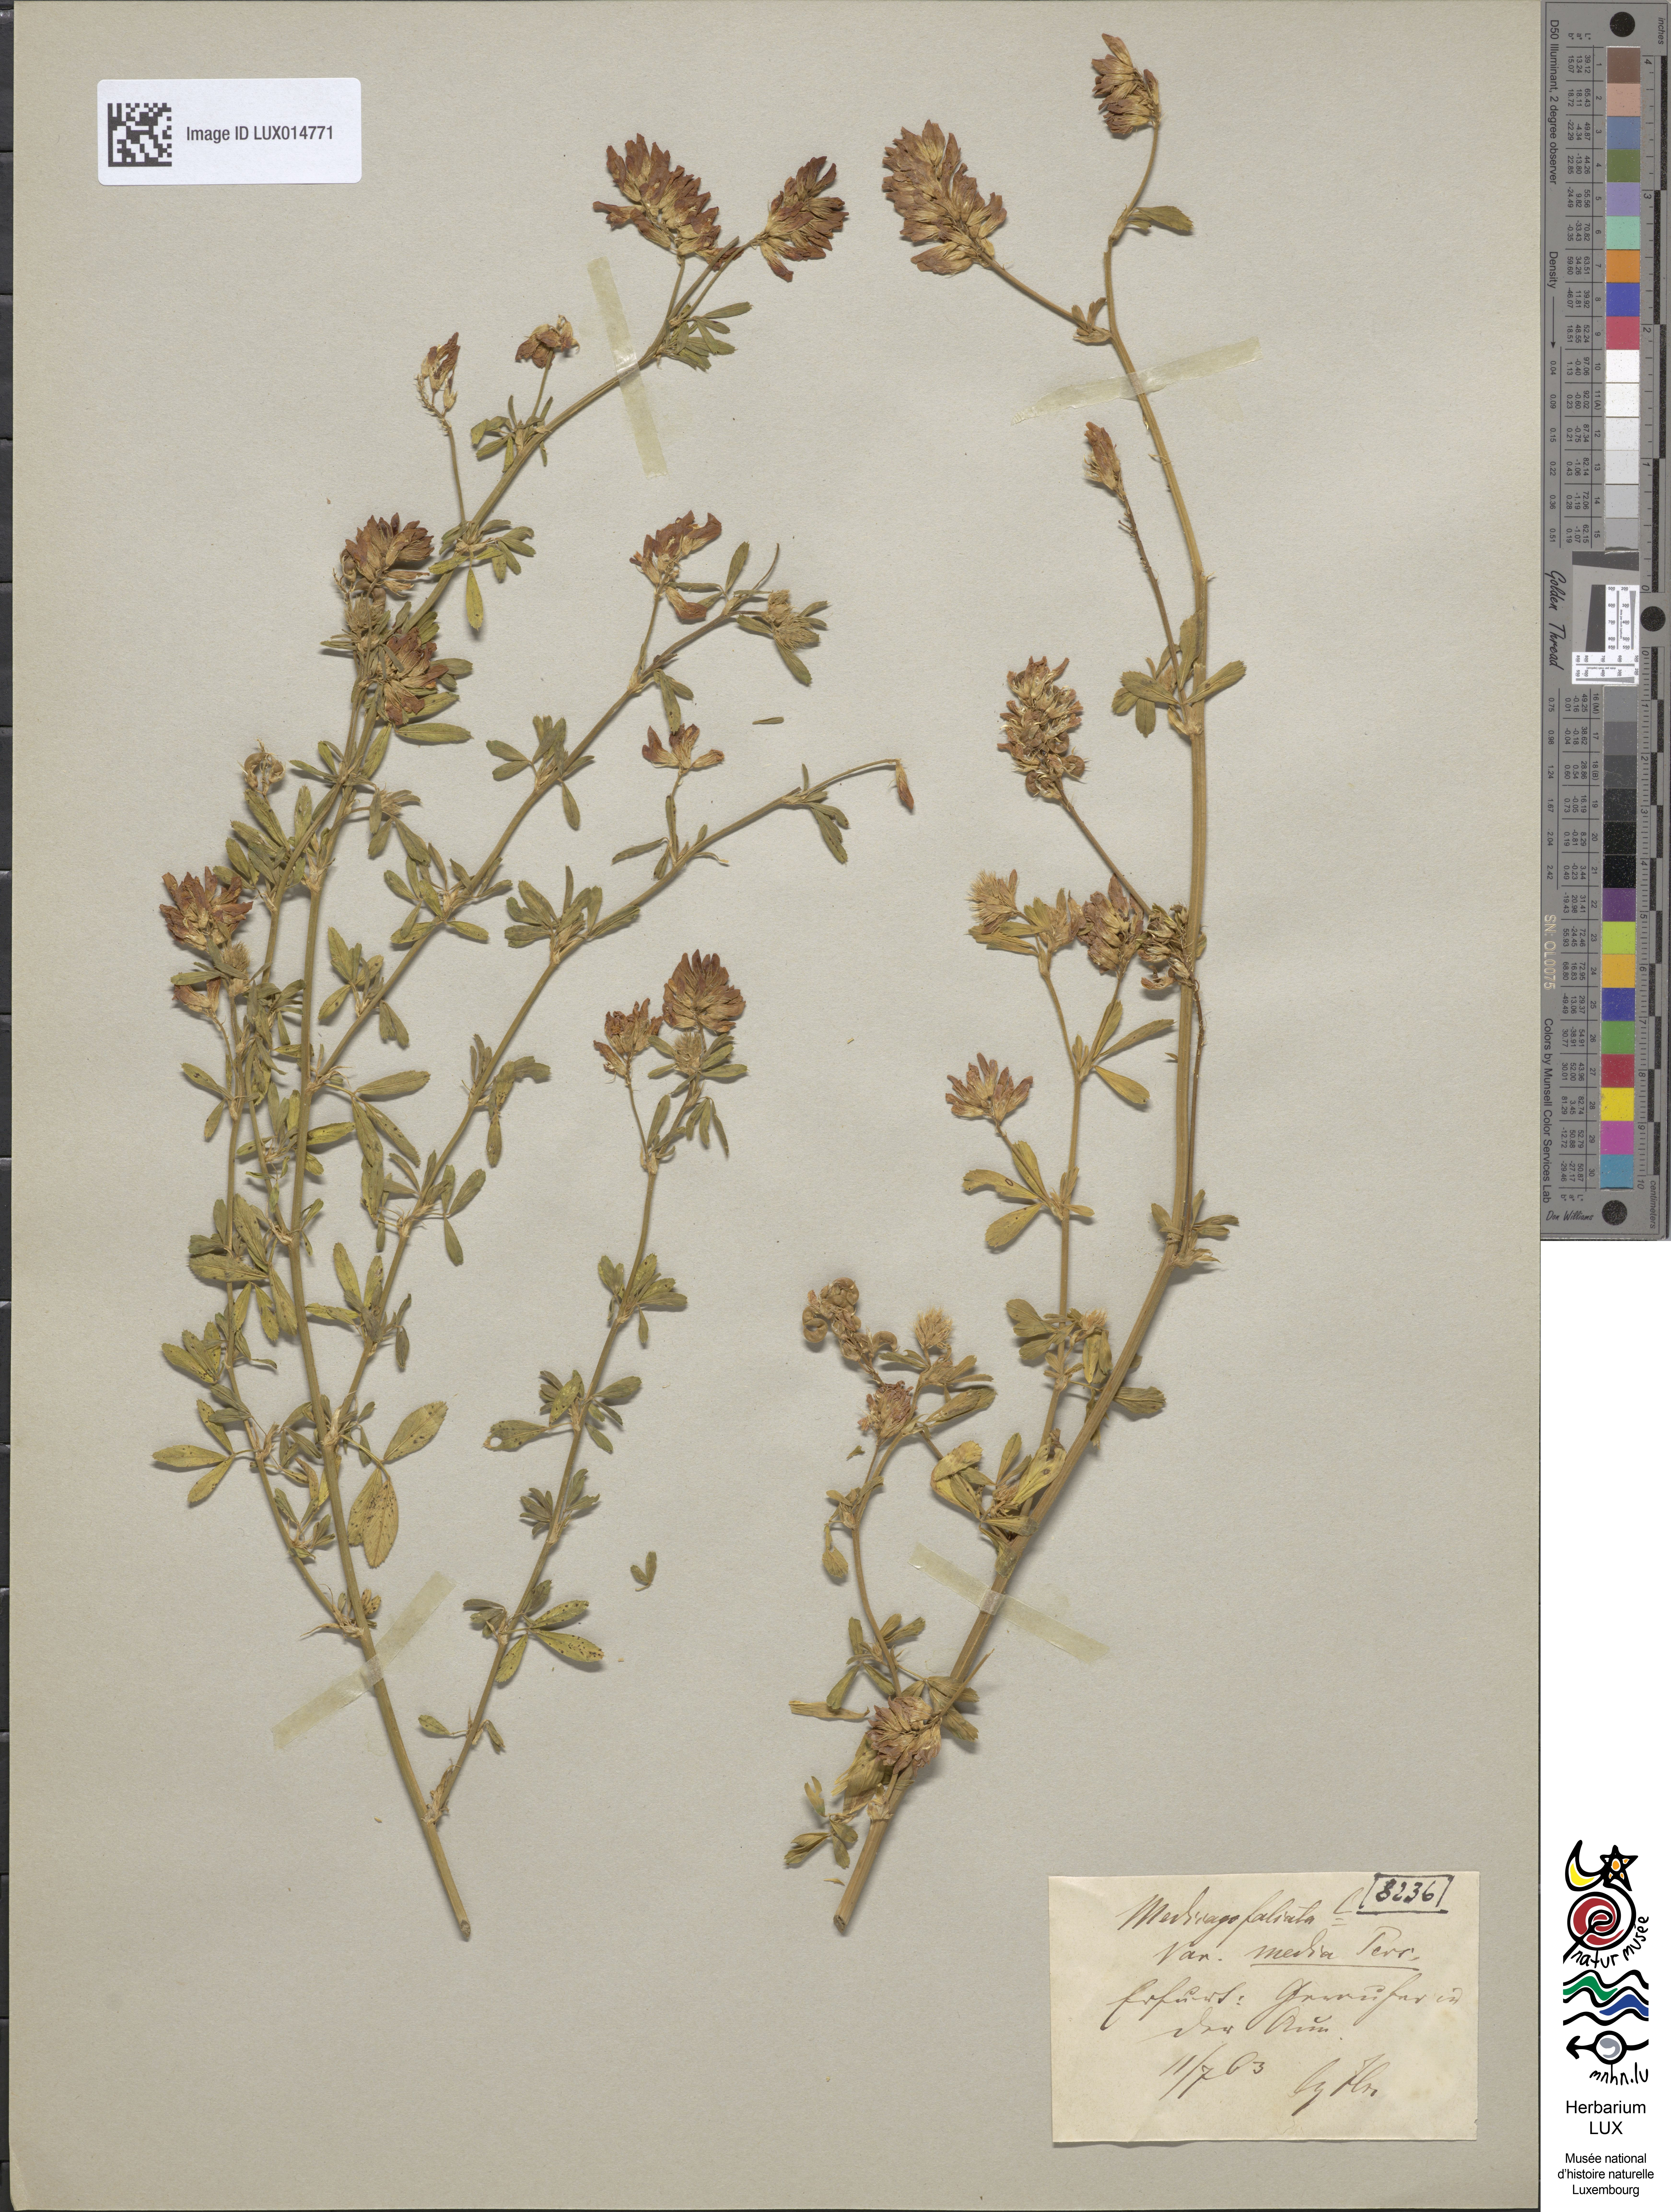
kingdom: Plantae
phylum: Tracheophyta
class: Magnoliopsida
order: Fabales
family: Fabaceae
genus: Medicago
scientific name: Medicago varia
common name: Sand lucerne
